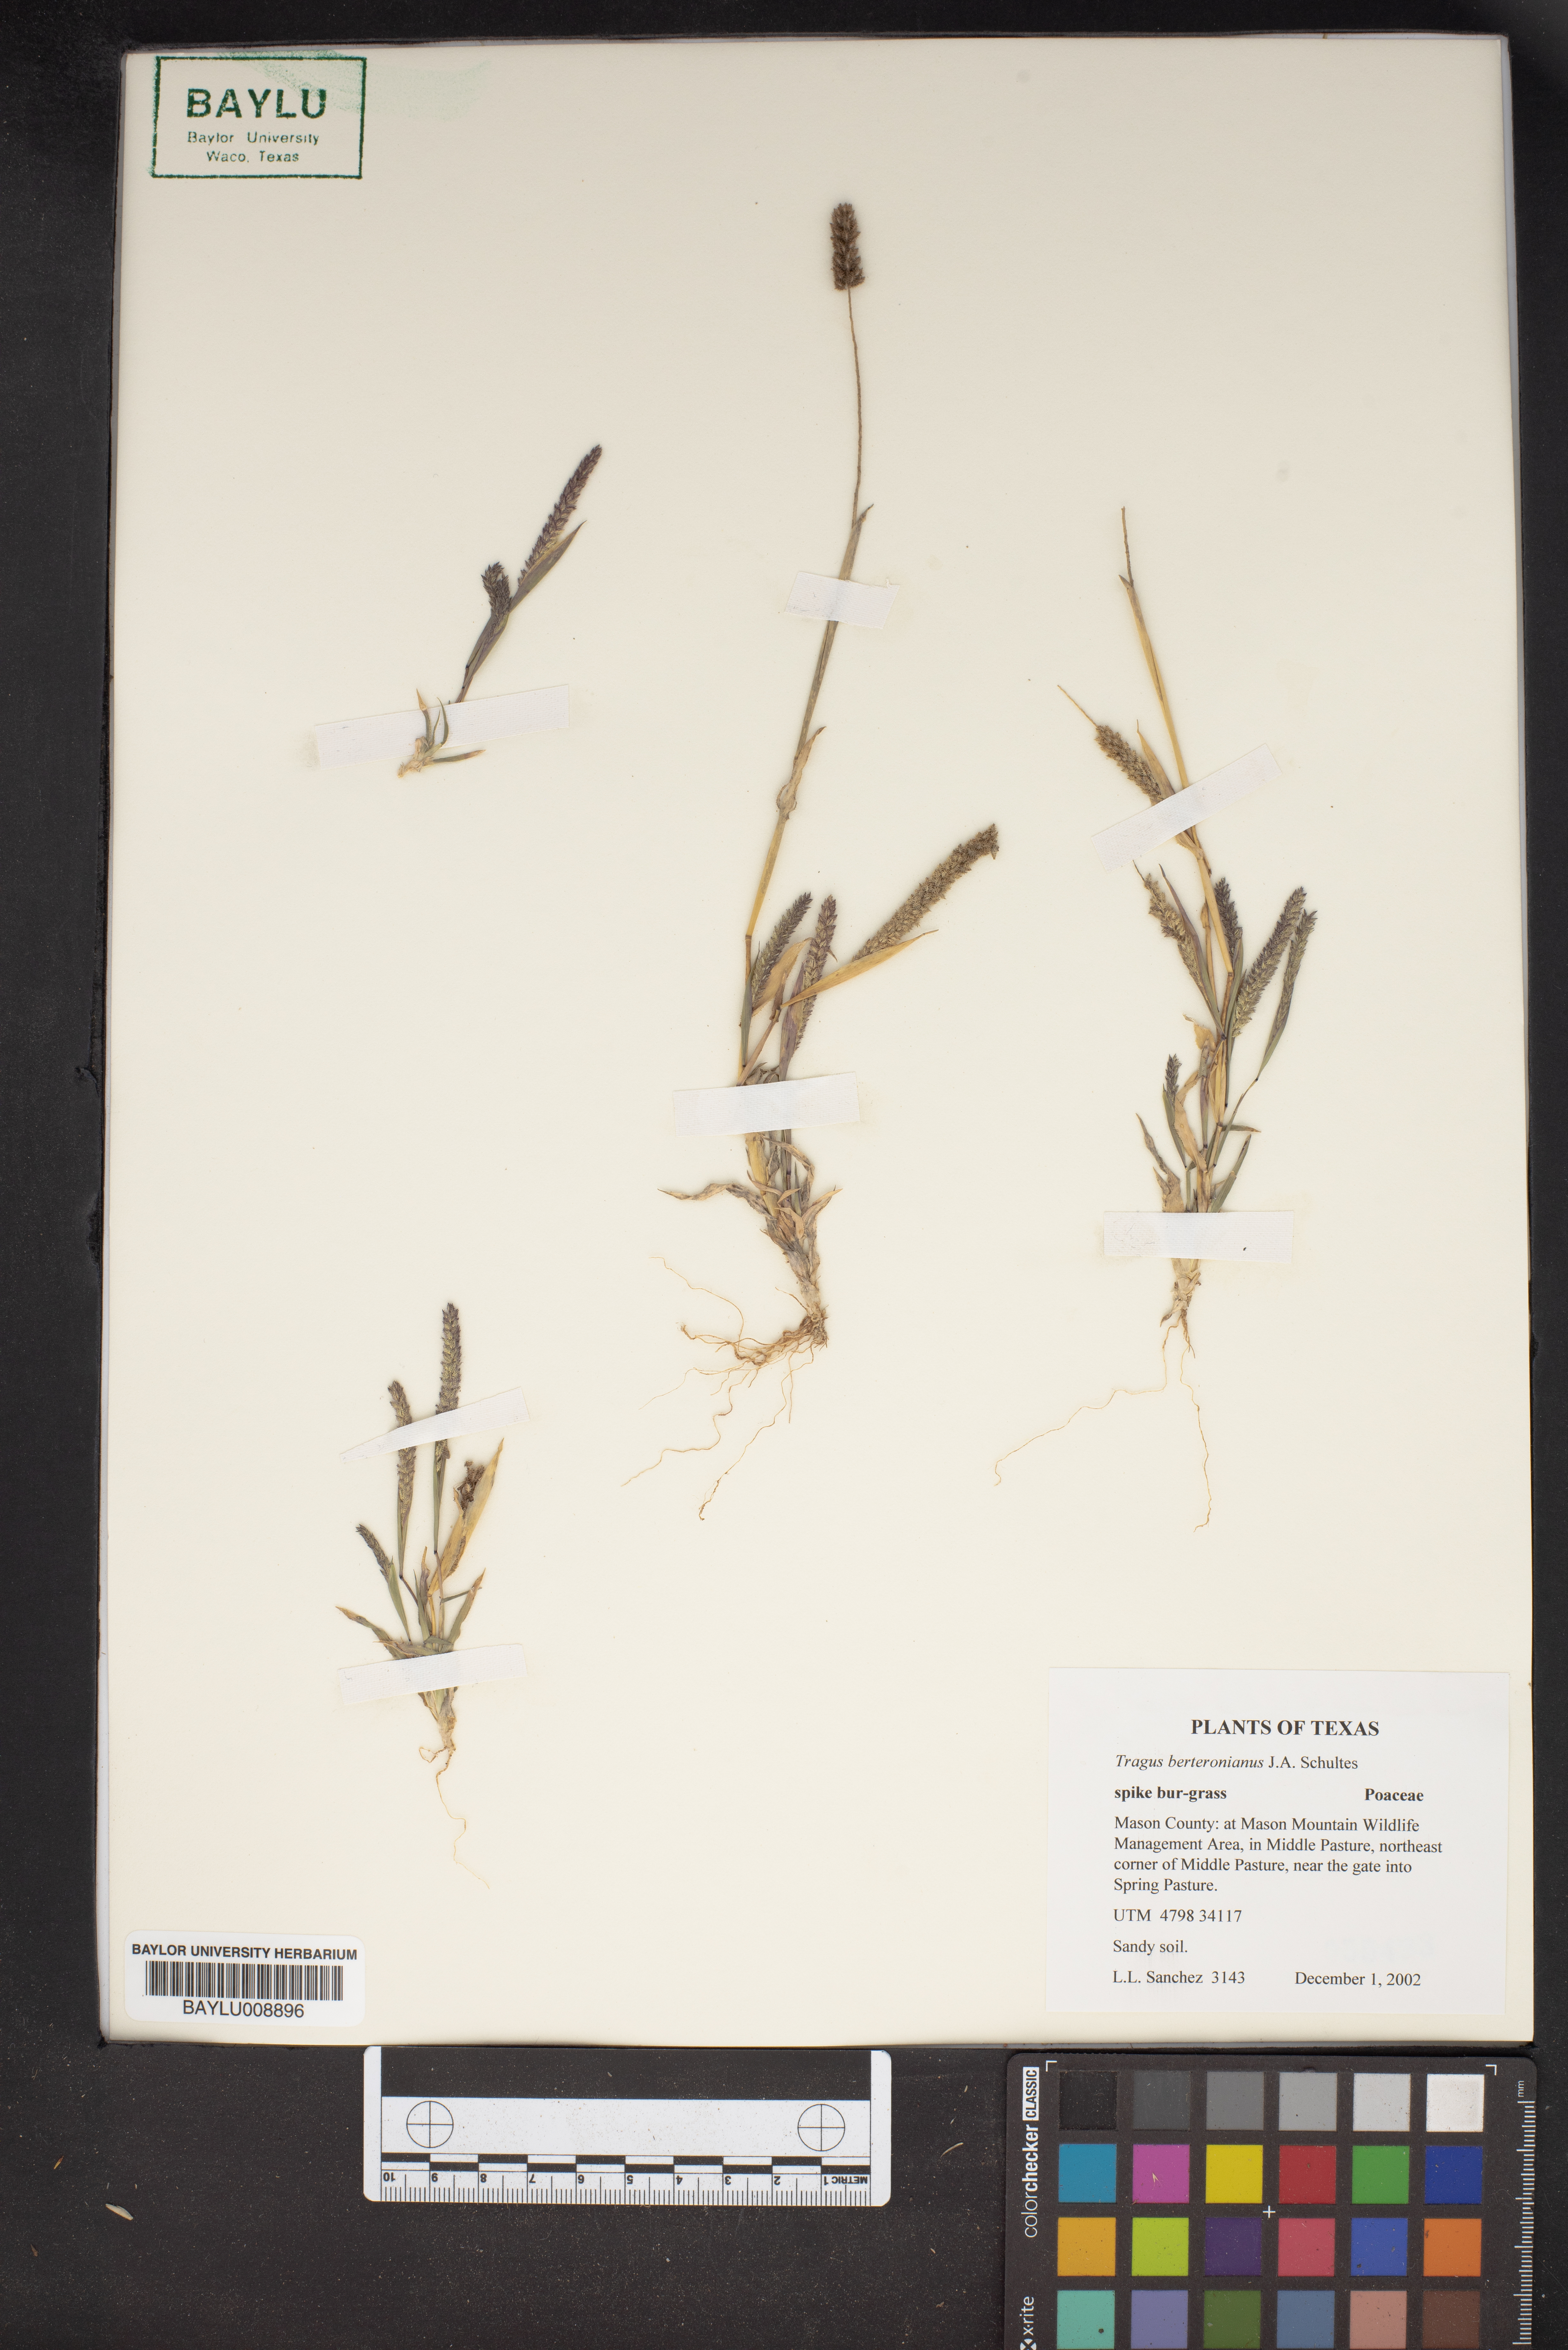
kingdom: Plantae
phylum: Tracheophyta
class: Liliopsida
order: Poales
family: Poaceae
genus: Tragus
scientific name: Tragus berteronianus
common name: African bur-grass
